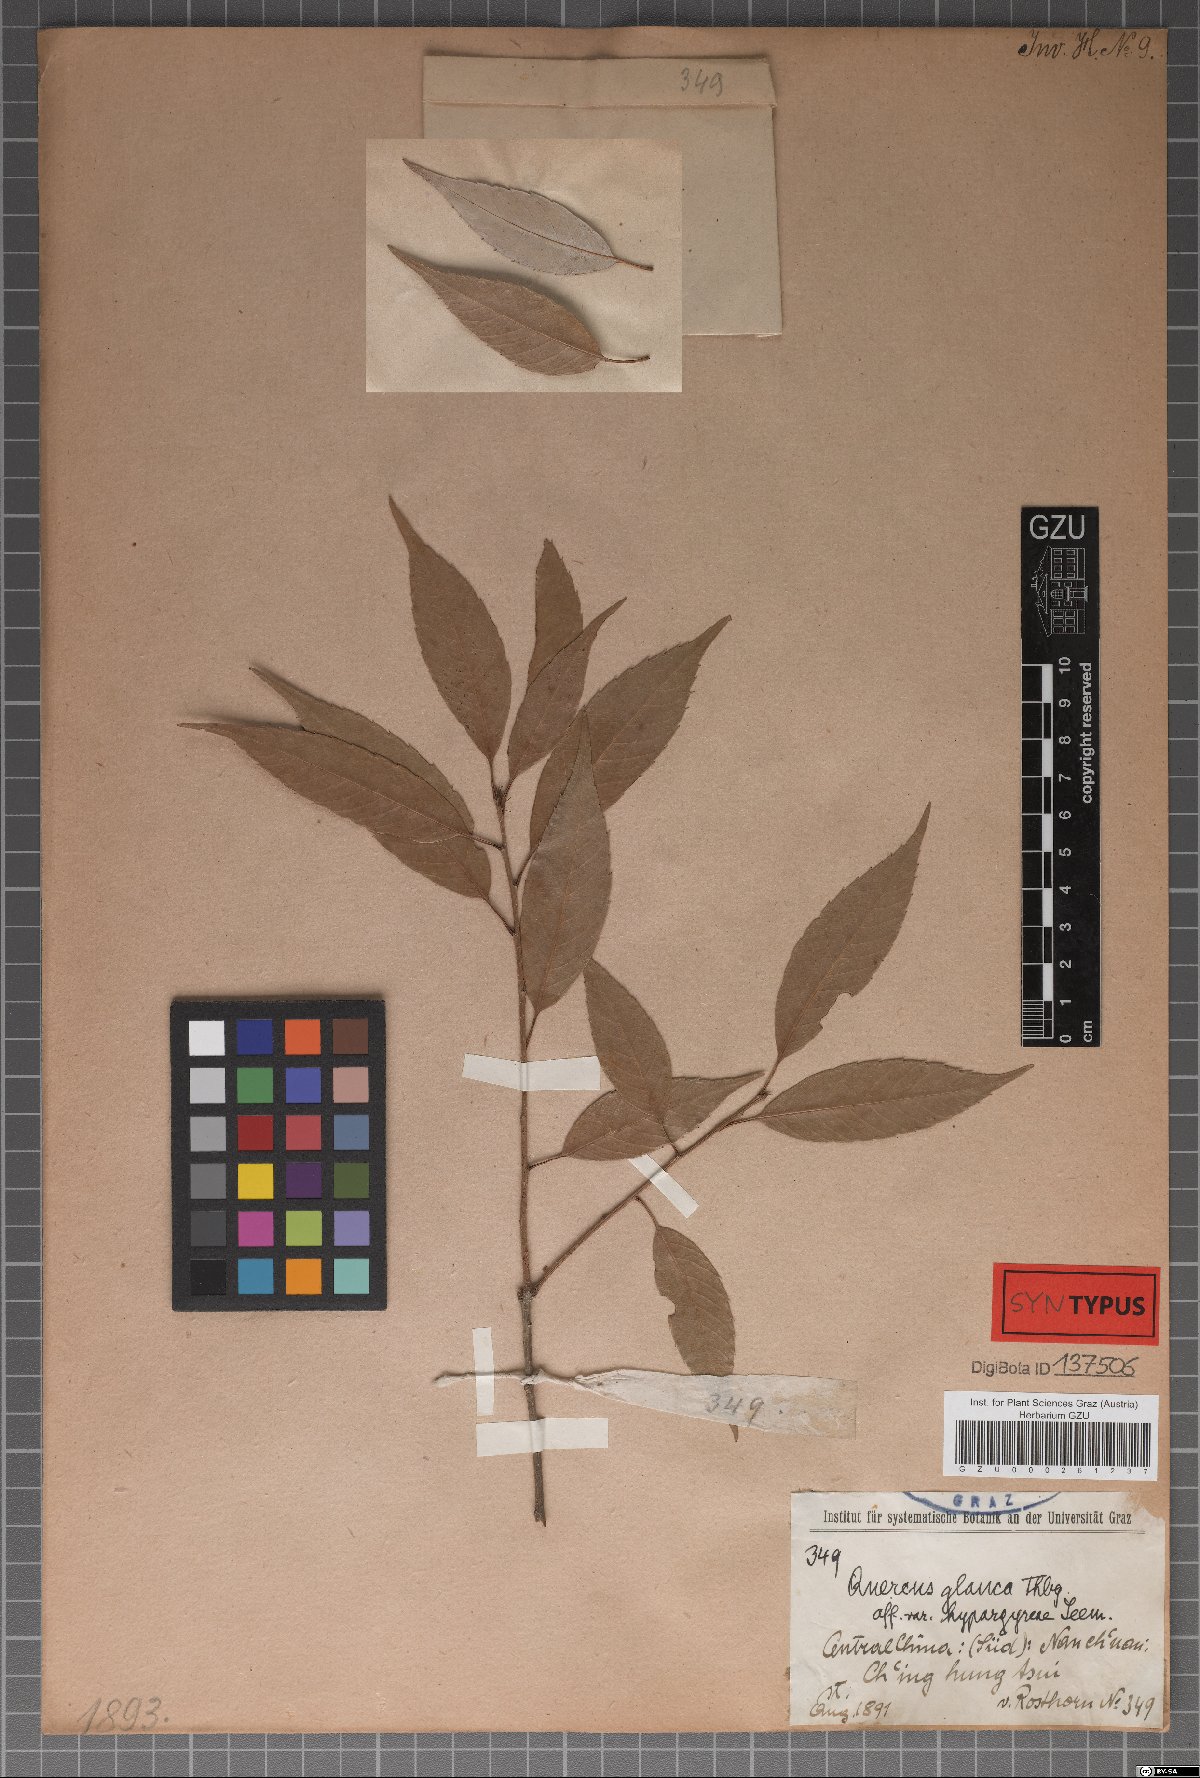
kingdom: Plantae
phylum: Tracheophyta
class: Magnoliopsida
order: Fagales
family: Fagaceae
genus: Quercus
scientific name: Quercus hypargyrea
